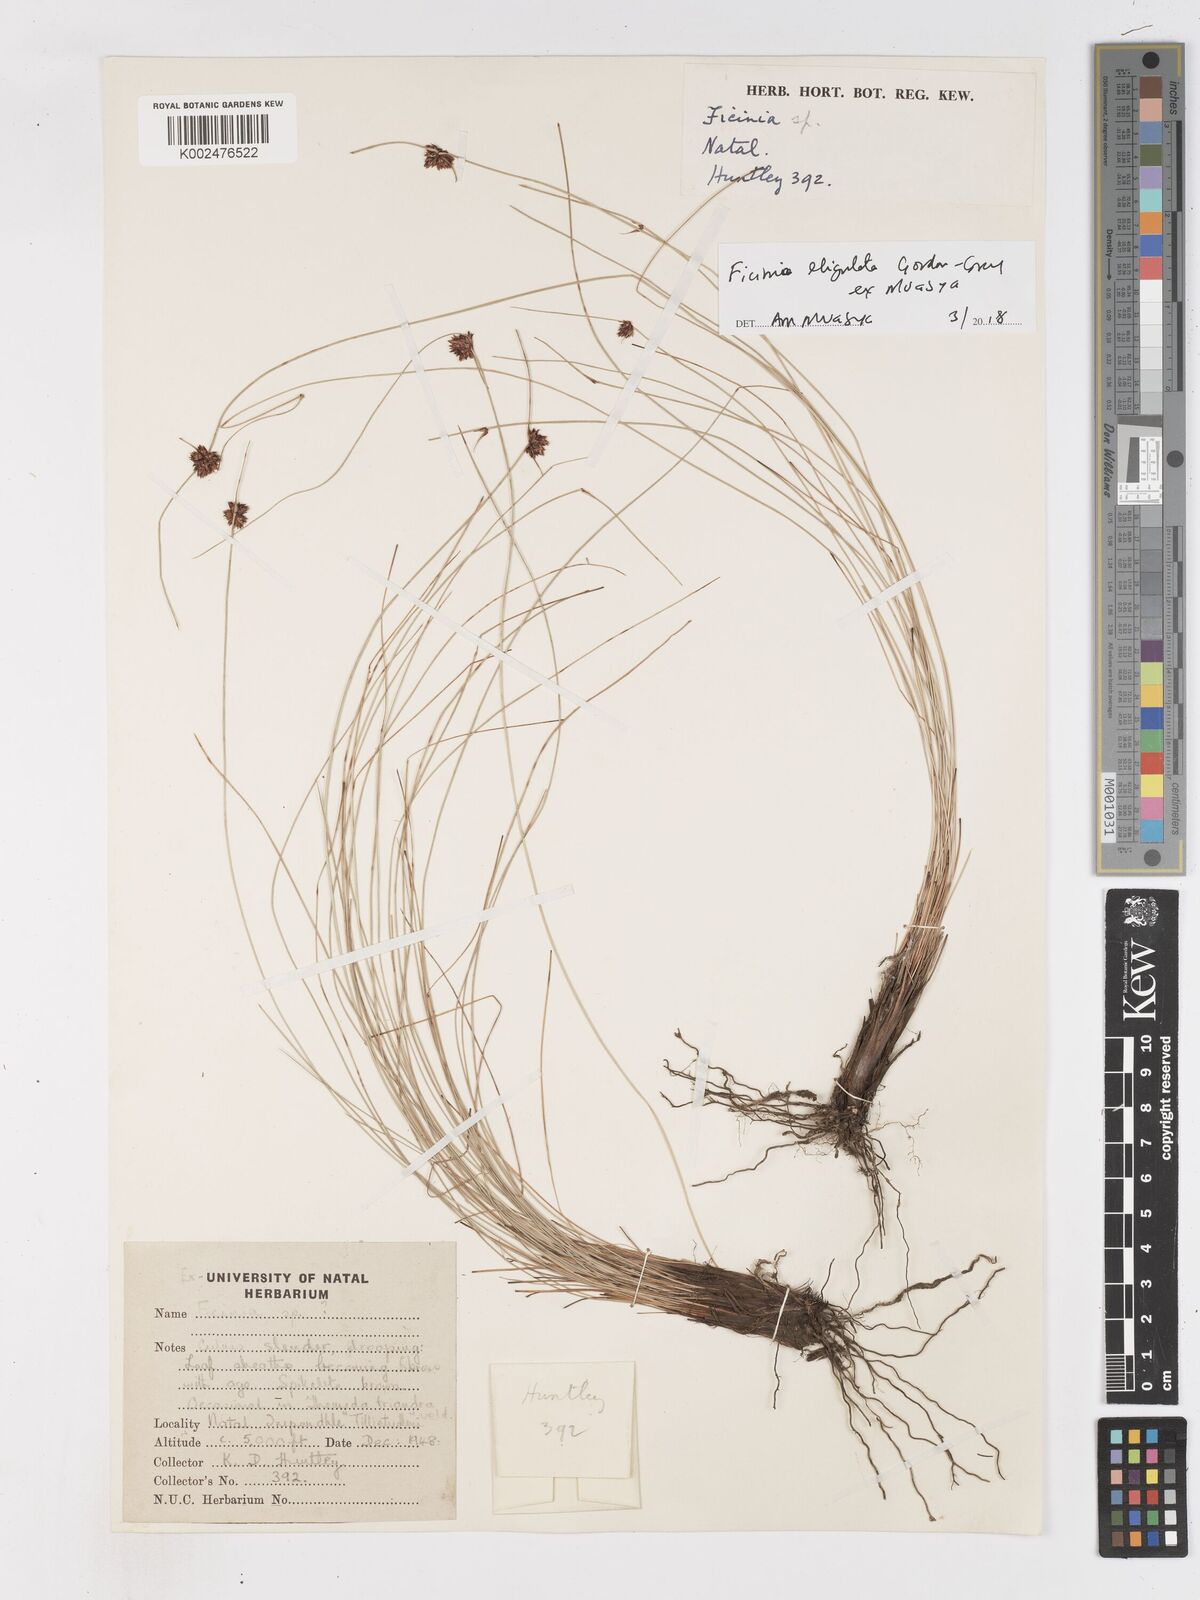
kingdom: Plantae
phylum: Tracheophyta
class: Liliopsida
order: Poales
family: Cyperaceae
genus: Ficinia
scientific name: Ficinia acuminata
